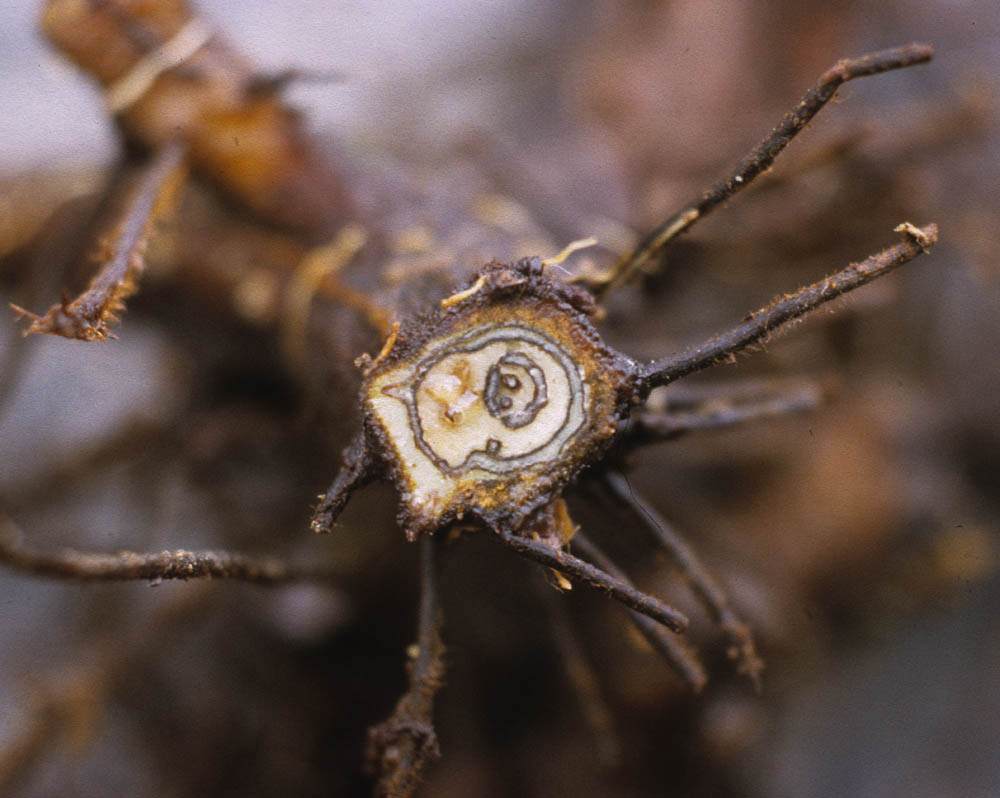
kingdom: Plantae
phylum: Tracheophyta
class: Polypodiopsida
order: Polypodiales
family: Dennstaedtiaceae
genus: Dennstaedtia
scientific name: Dennstaedtia paucirrhiza
